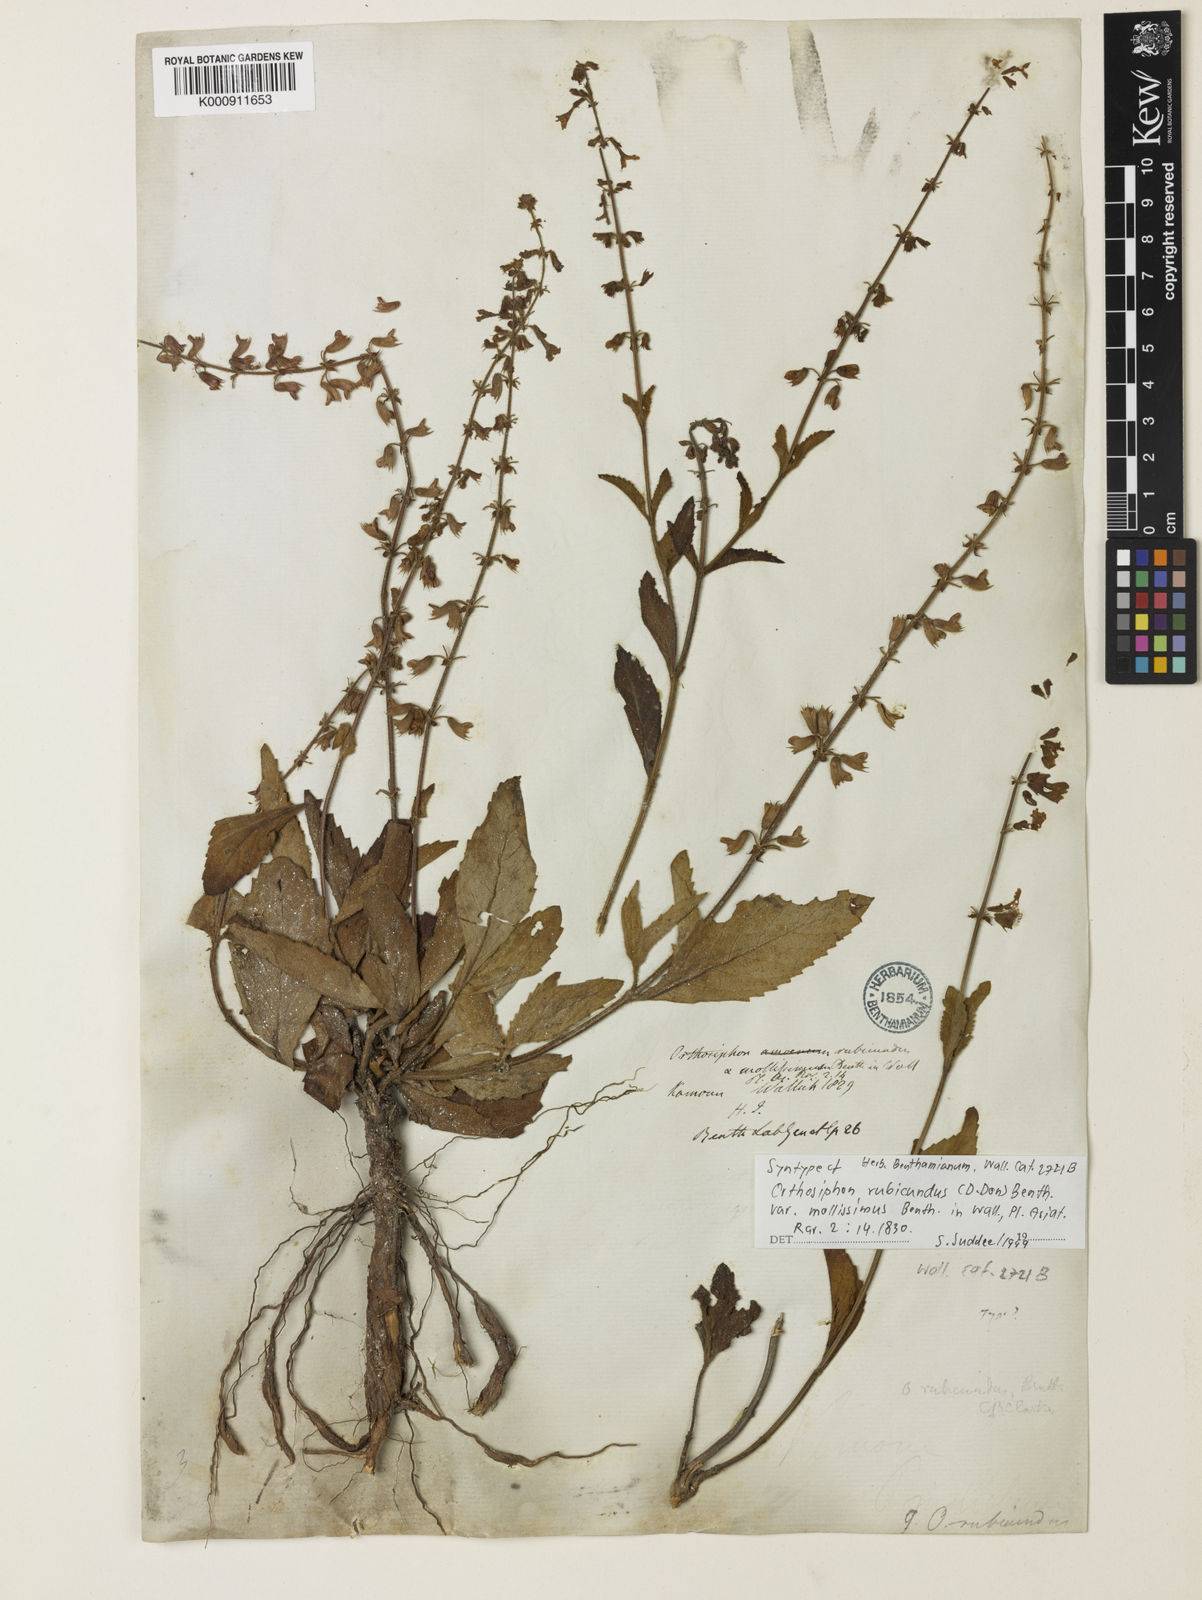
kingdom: Plantae
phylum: Tracheophyta
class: Magnoliopsida
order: Lamiales
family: Lamiaceae
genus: Orthosiphon
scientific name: Orthosiphon rubicundus
